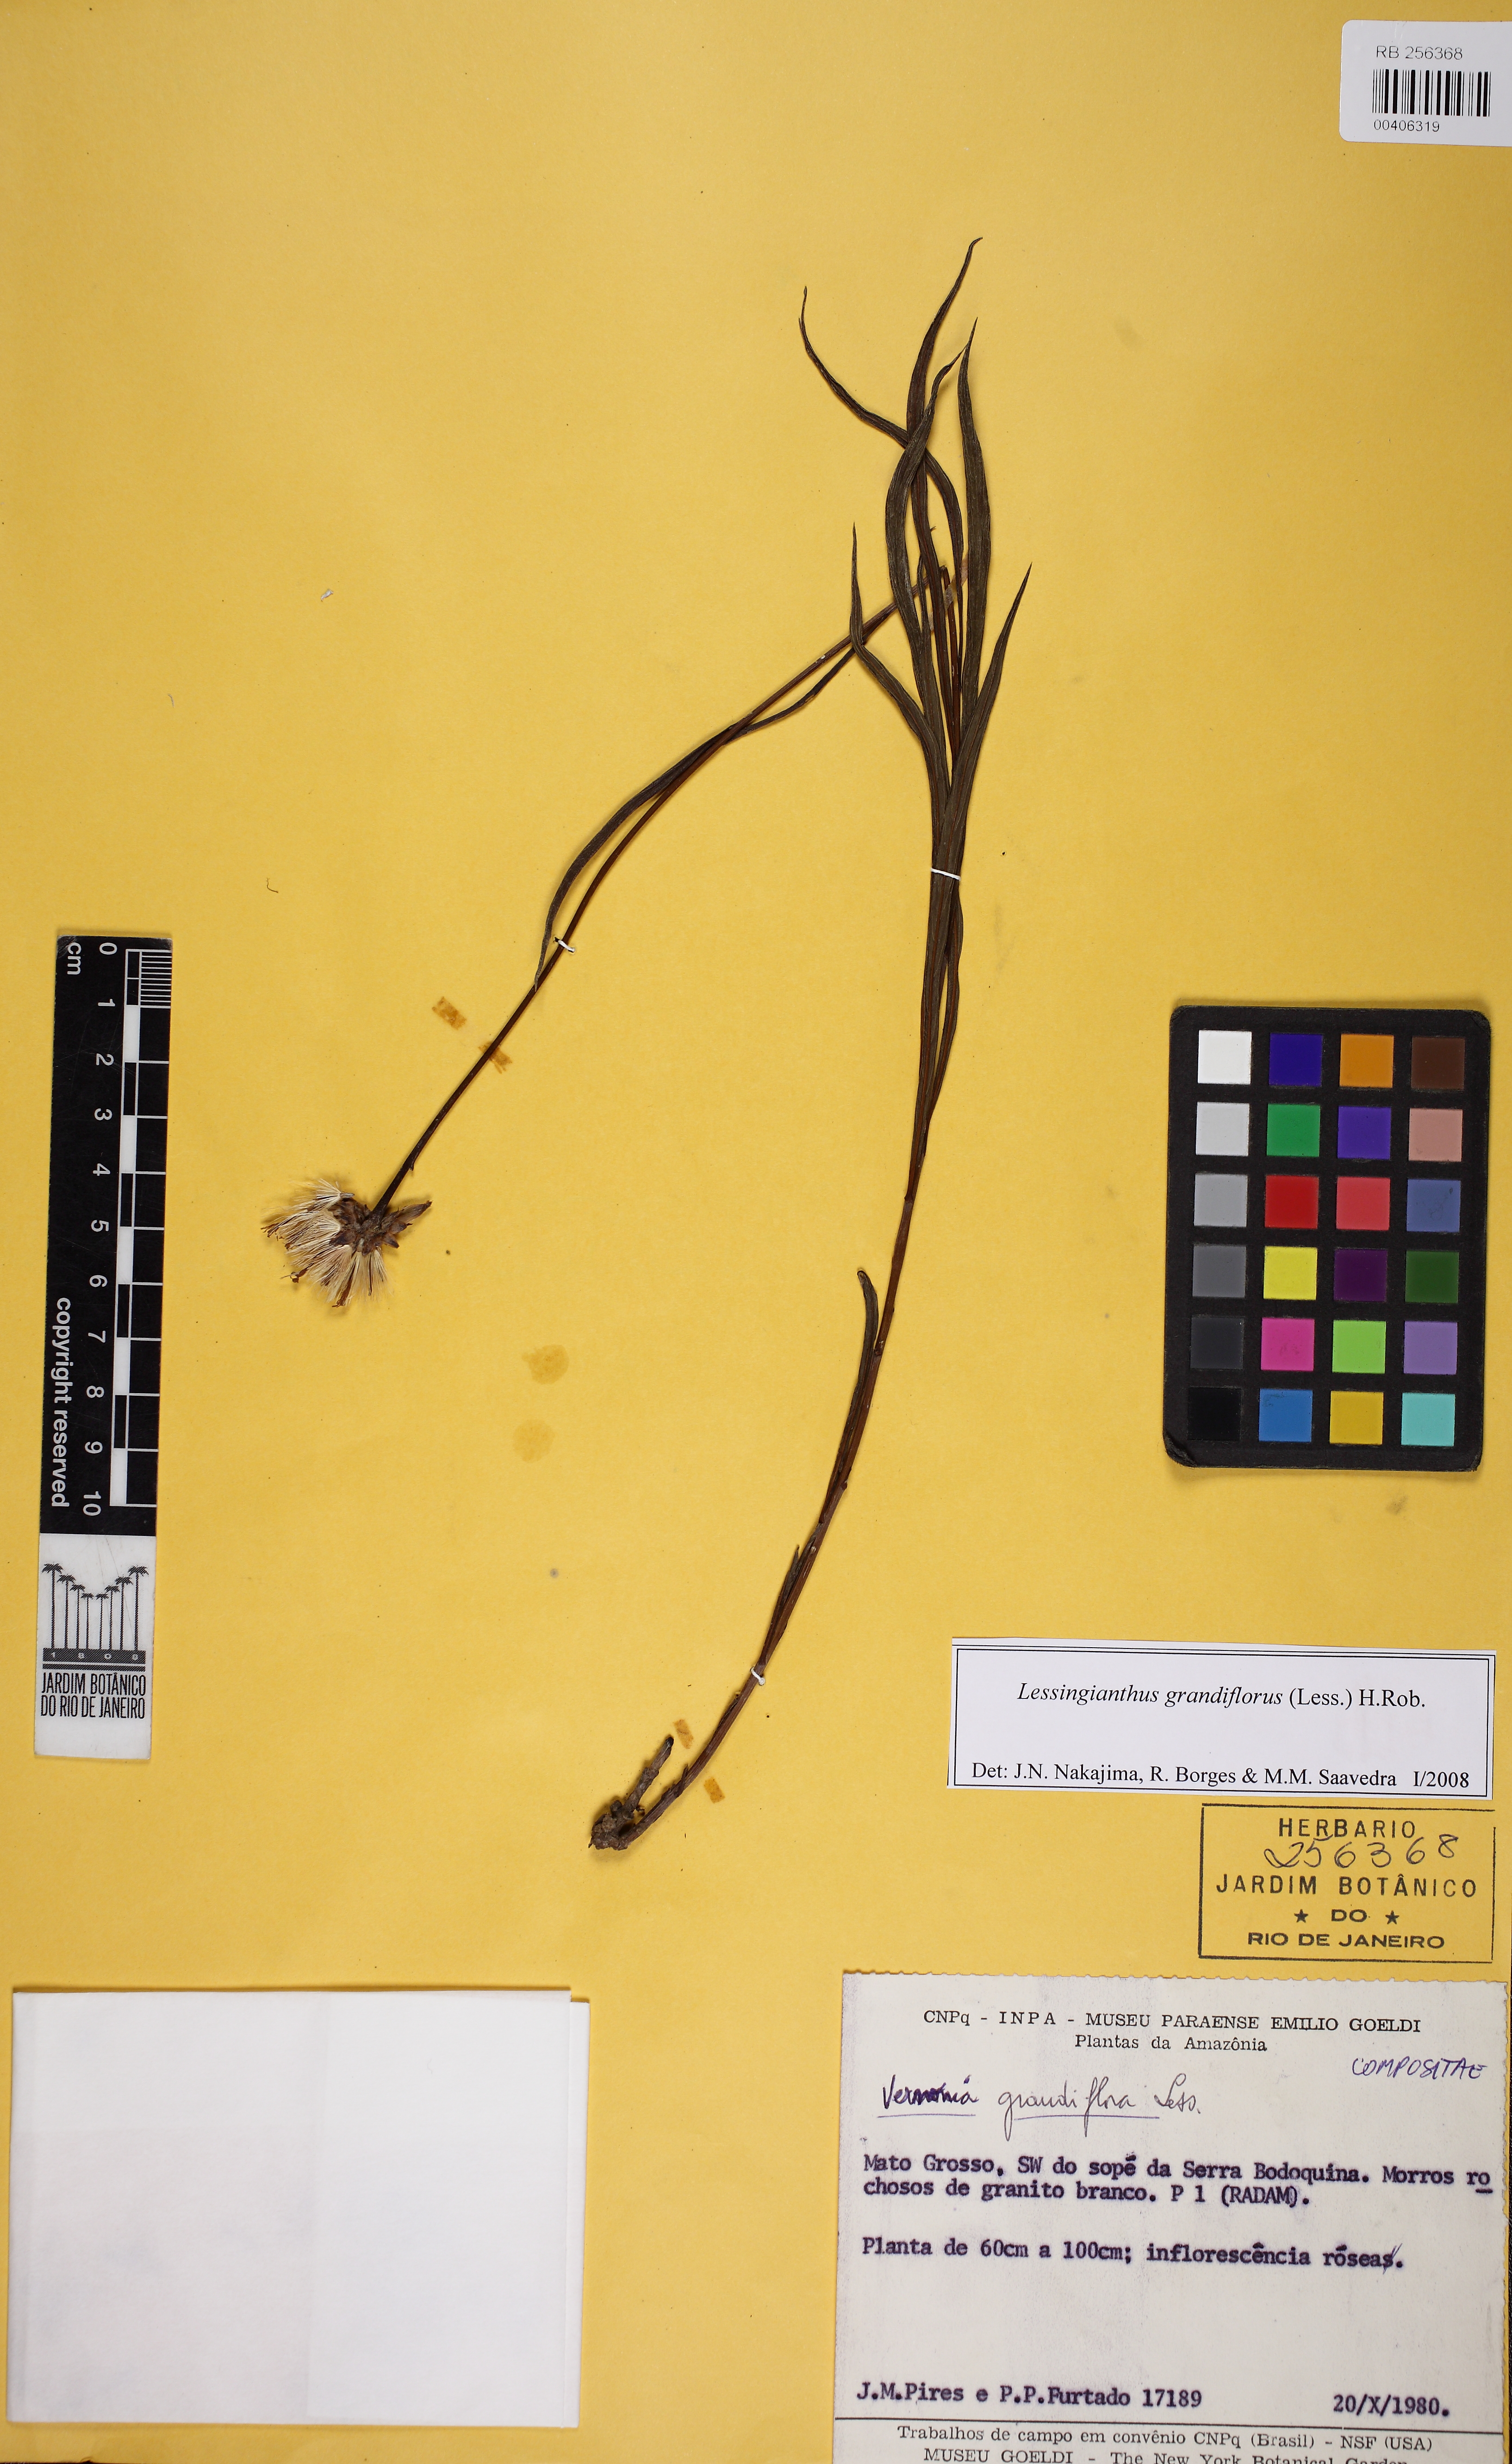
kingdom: Plantae
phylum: Tracheophyta
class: Magnoliopsida
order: Asterales
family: Asteraceae
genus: Lessingianthus
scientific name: Lessingianthus grandiflorus
